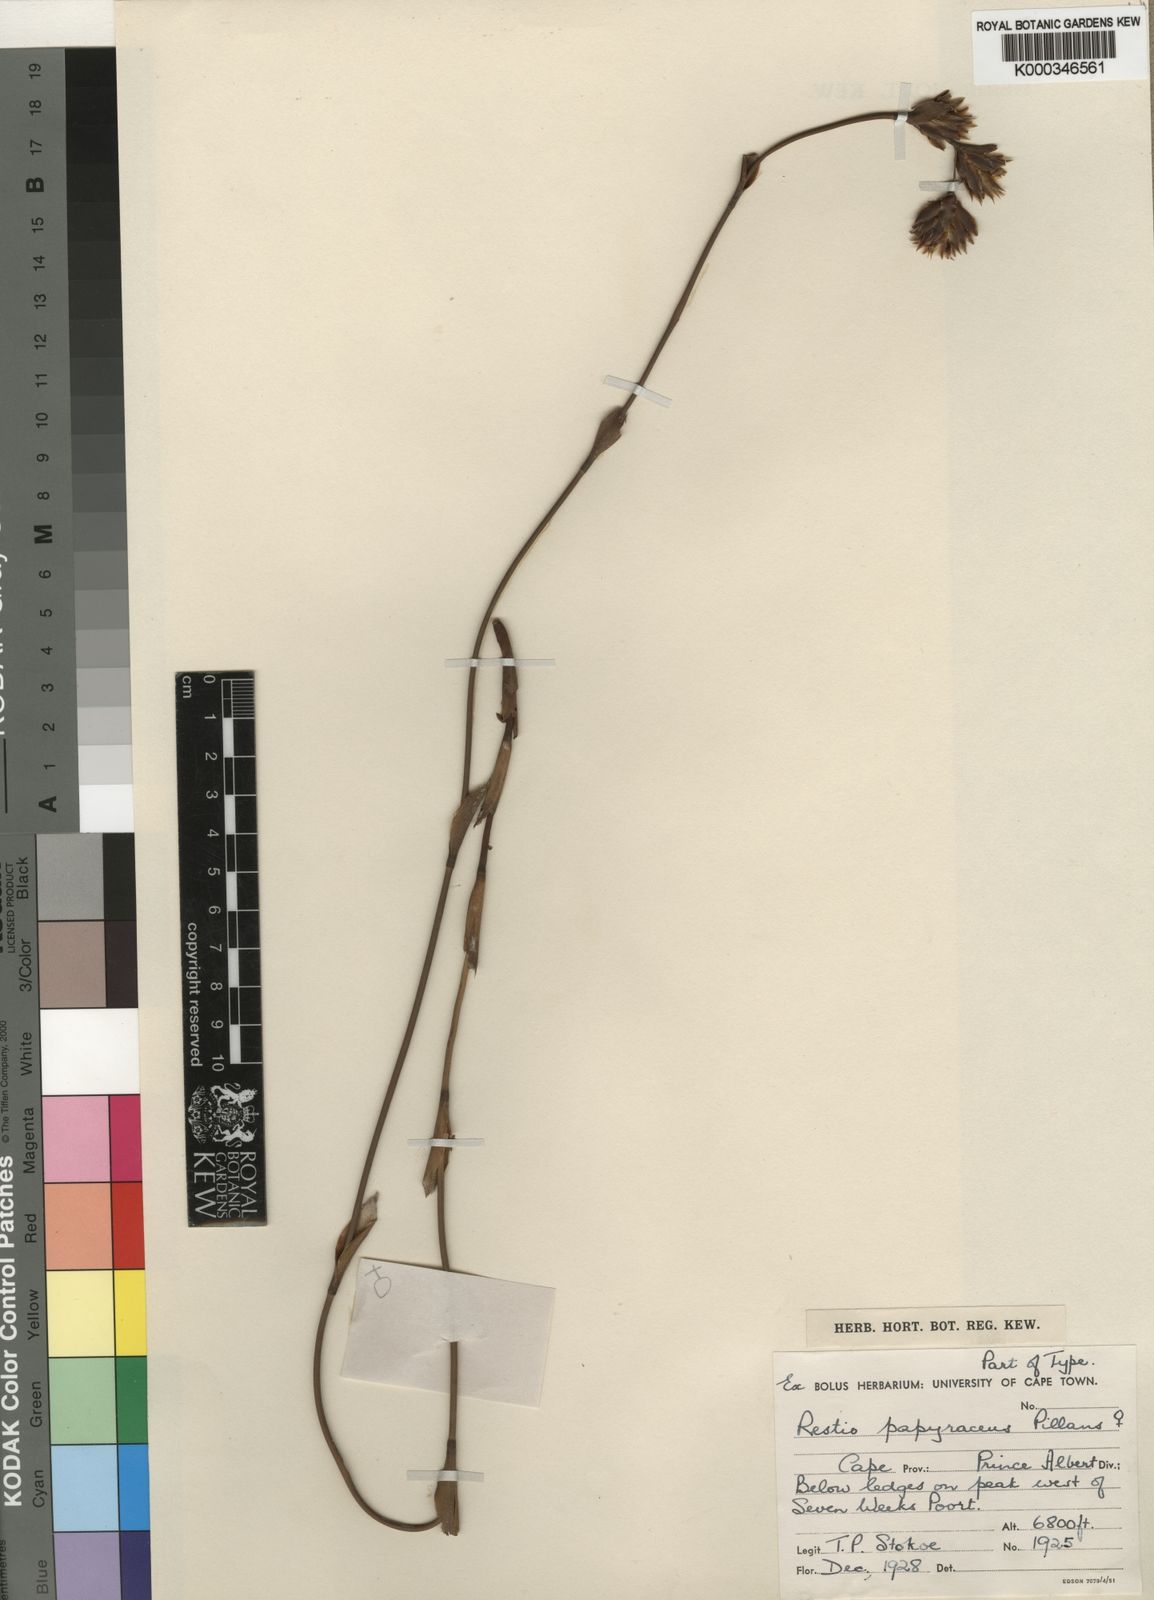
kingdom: Plantae
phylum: Tracheophyta
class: Liliopsida
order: Poales
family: Restionaceae
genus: Restio
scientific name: Restio papyraceus
